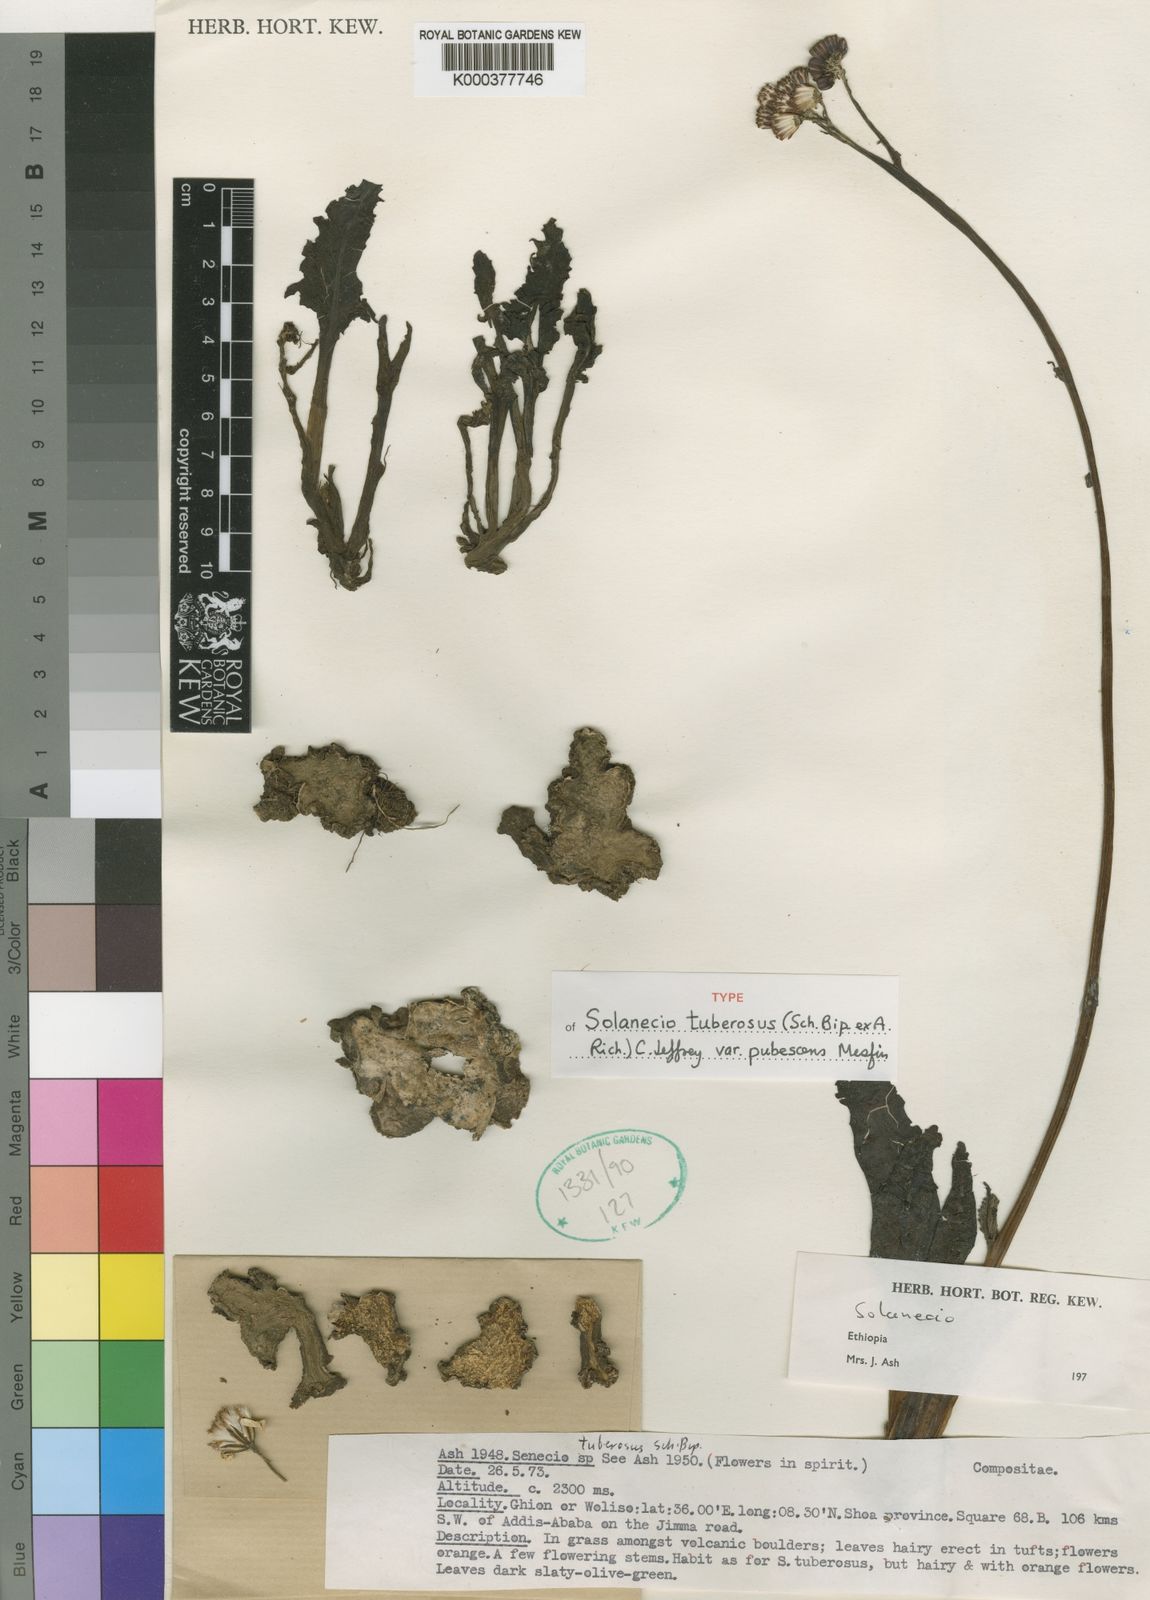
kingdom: Plantae
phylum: Tracheophyta
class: Magnoliopsida
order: Asterales
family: Asteraceae
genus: Solanecio
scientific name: Solanecio tuberosus
